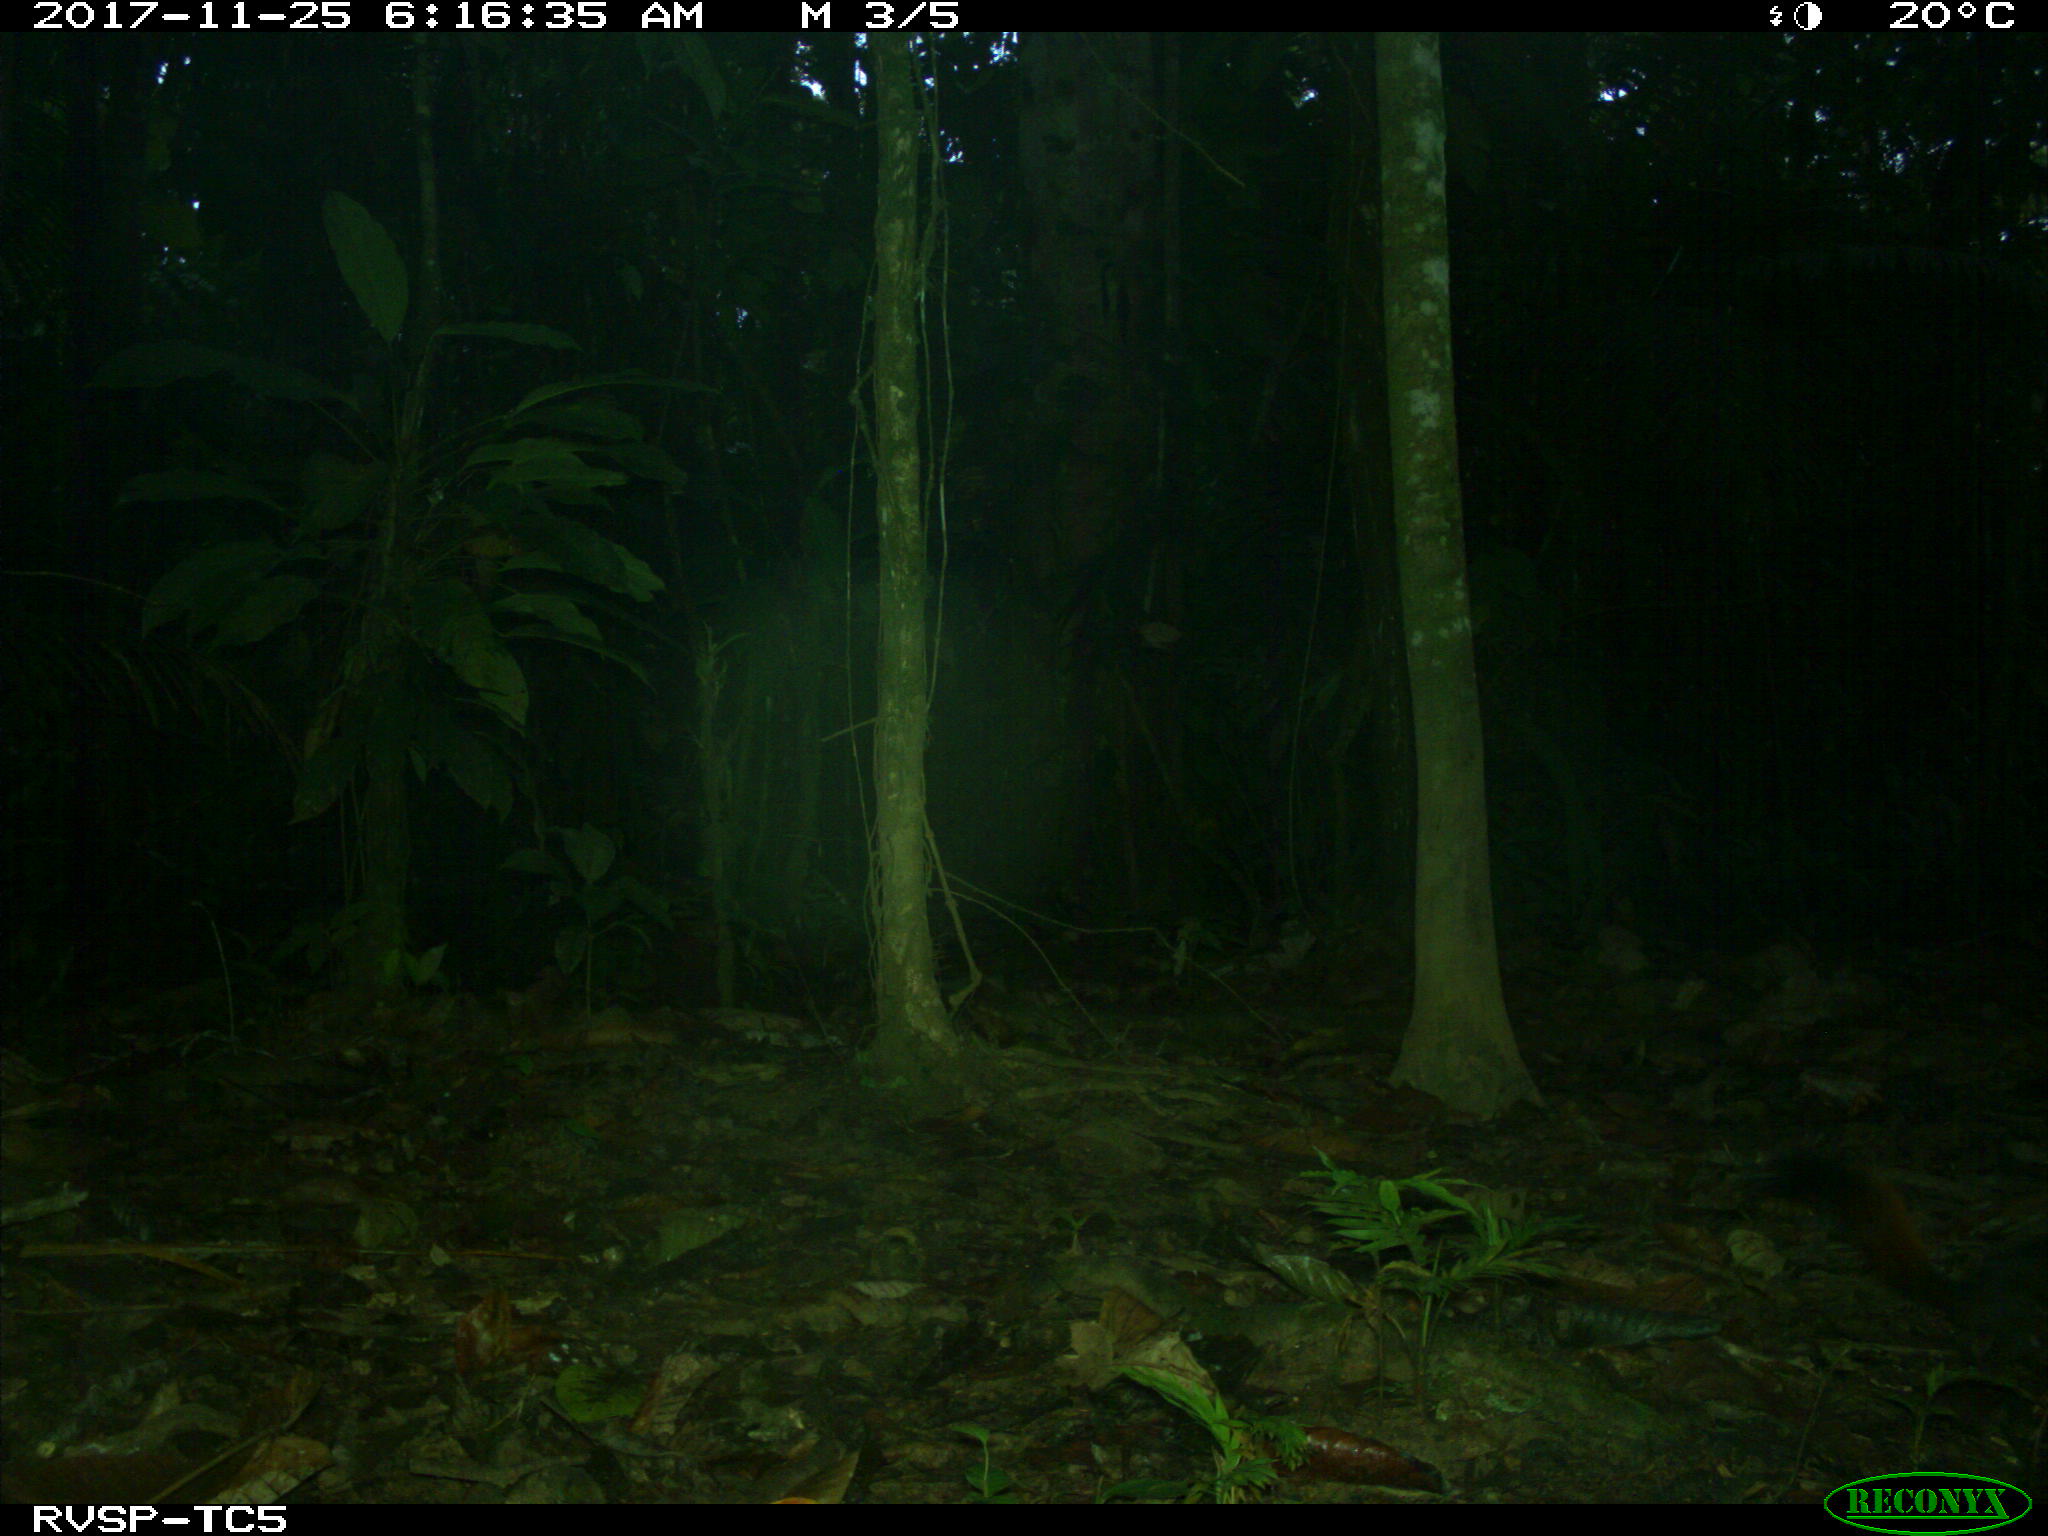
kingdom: Animalia
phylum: Chordata
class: Mammalia
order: Rodentia
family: Sciuridae
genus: Sciurus
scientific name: Sciurus granatensis
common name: Red-tailed squirrel
